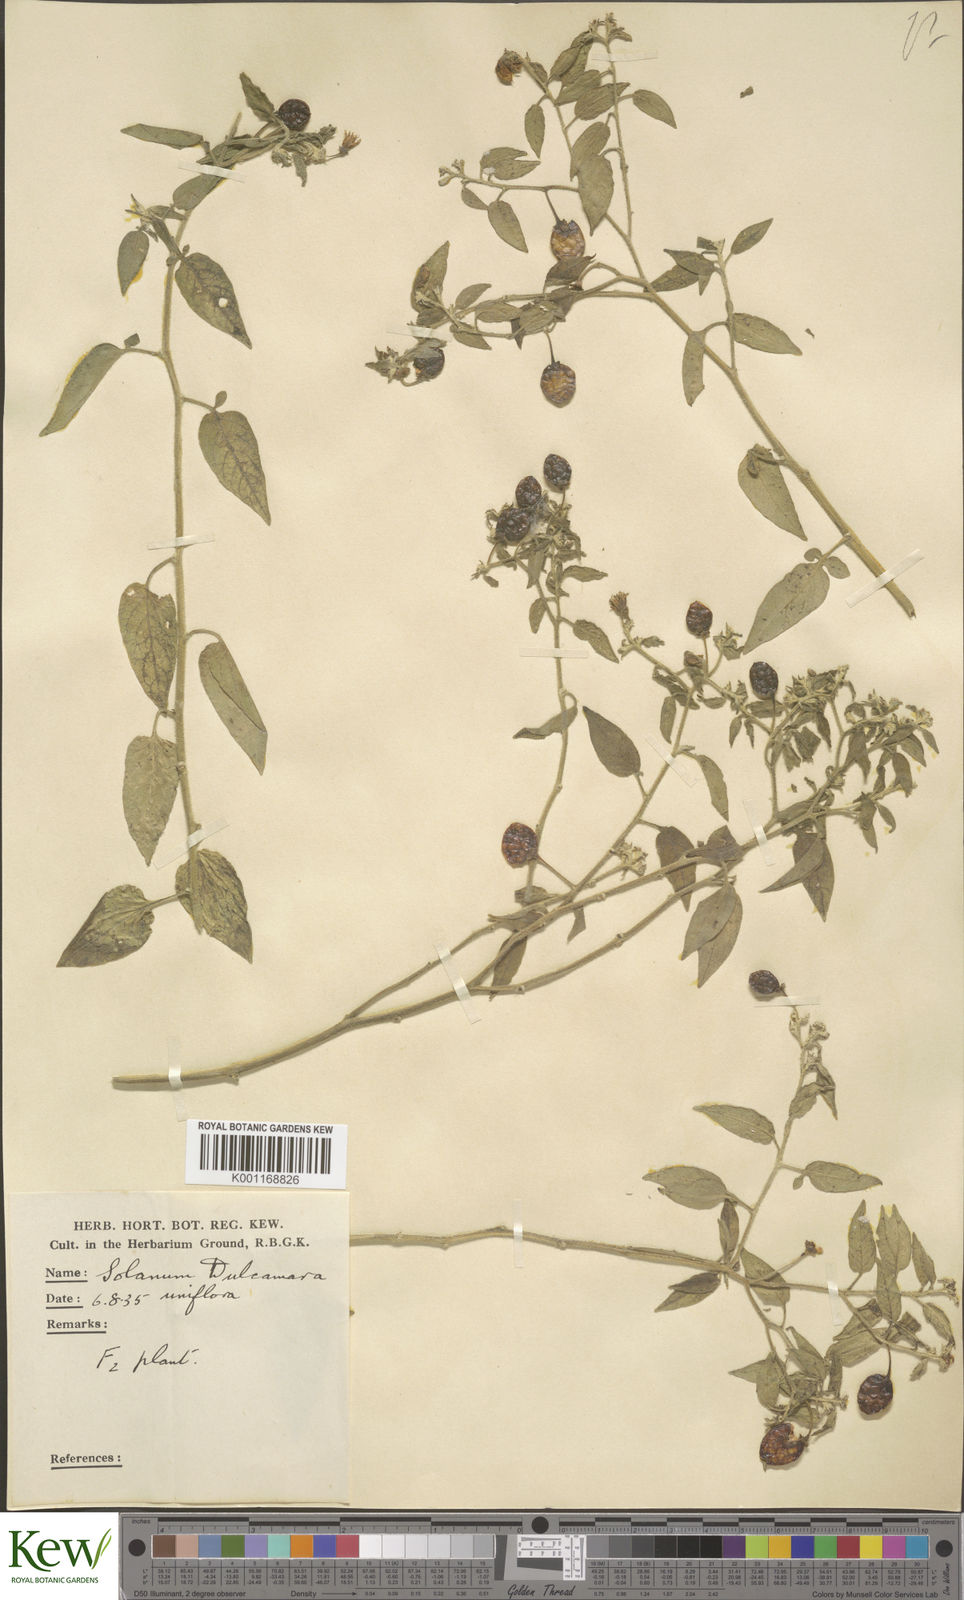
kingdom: Plantae
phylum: Tracheophyta
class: Magnoliopsida
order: Solanales
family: Solanaceae
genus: Solanum
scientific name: Solanum
